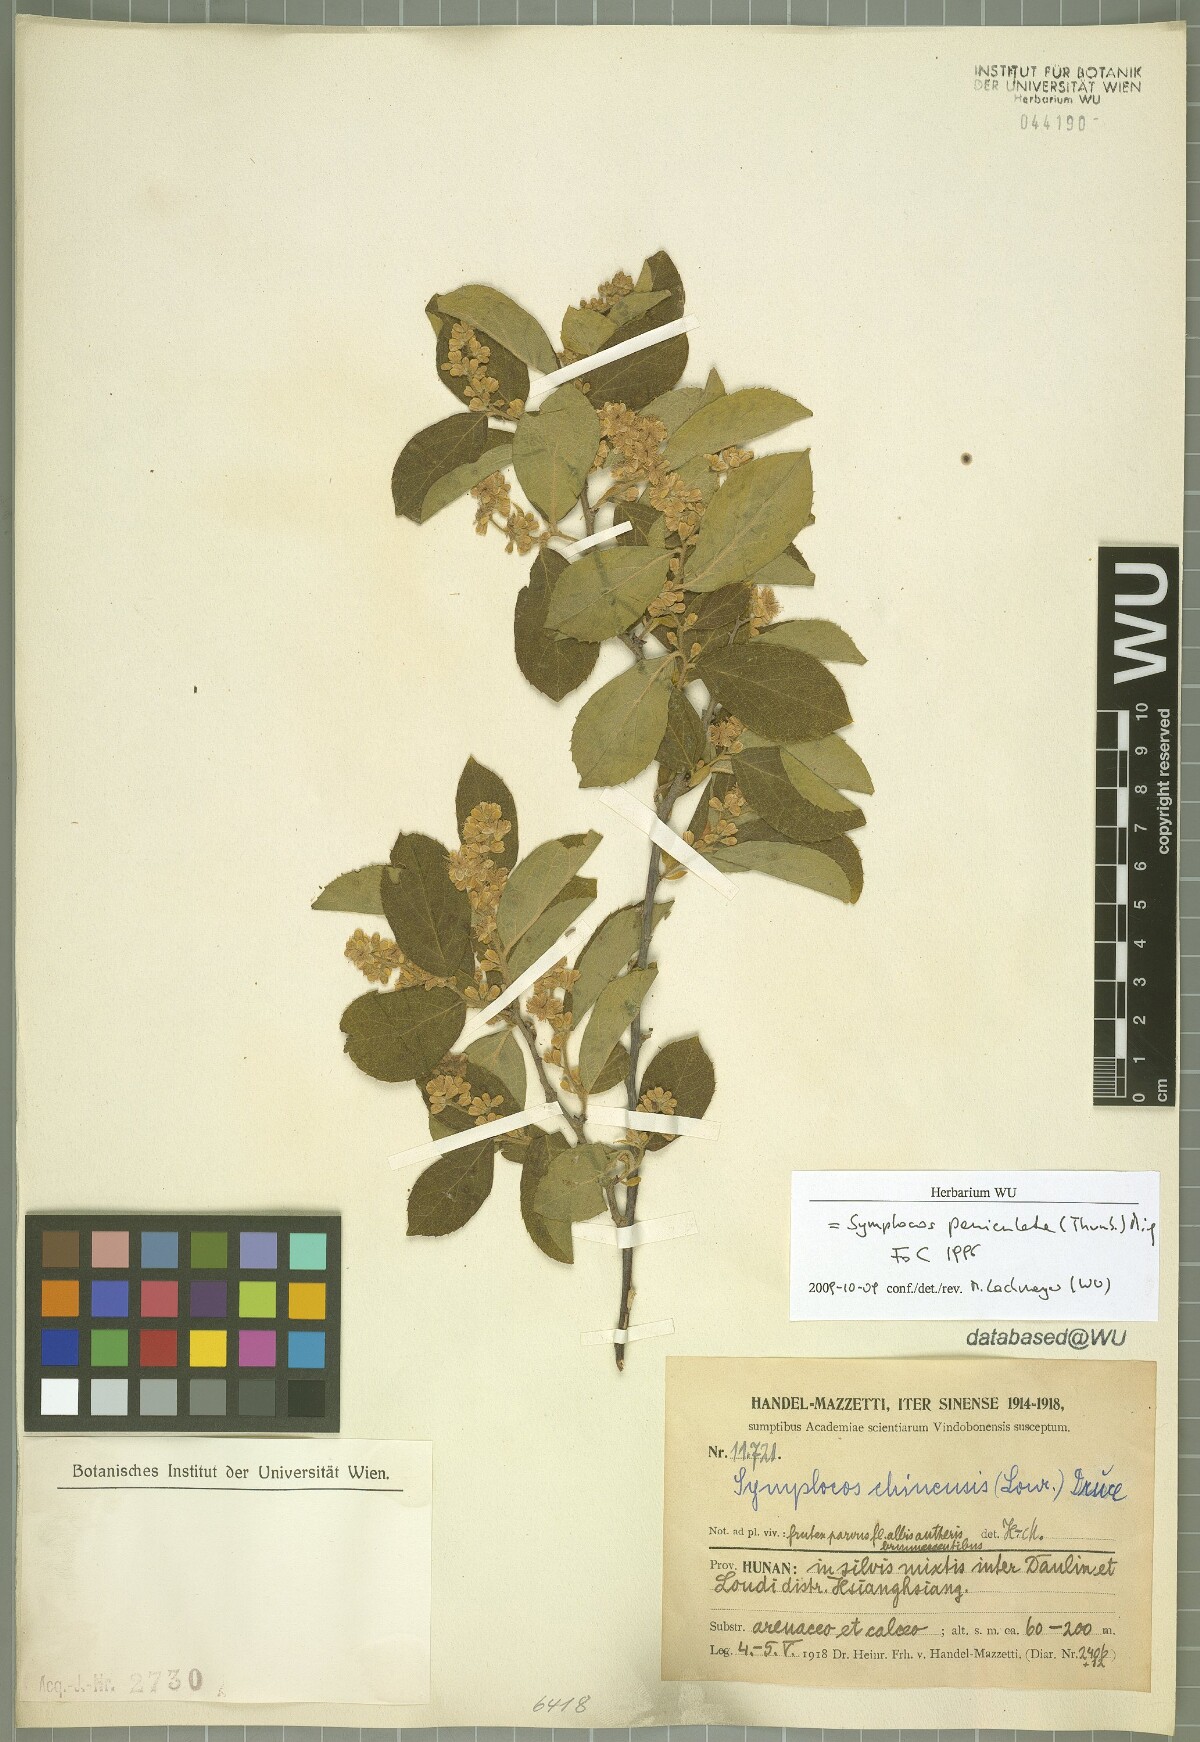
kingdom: Plantae
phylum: Tracheophyta
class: Magnoliopsida
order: Ericales
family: Symplocaceae
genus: Symplocos
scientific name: Symplocos paniculata
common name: Sapphire-berry
